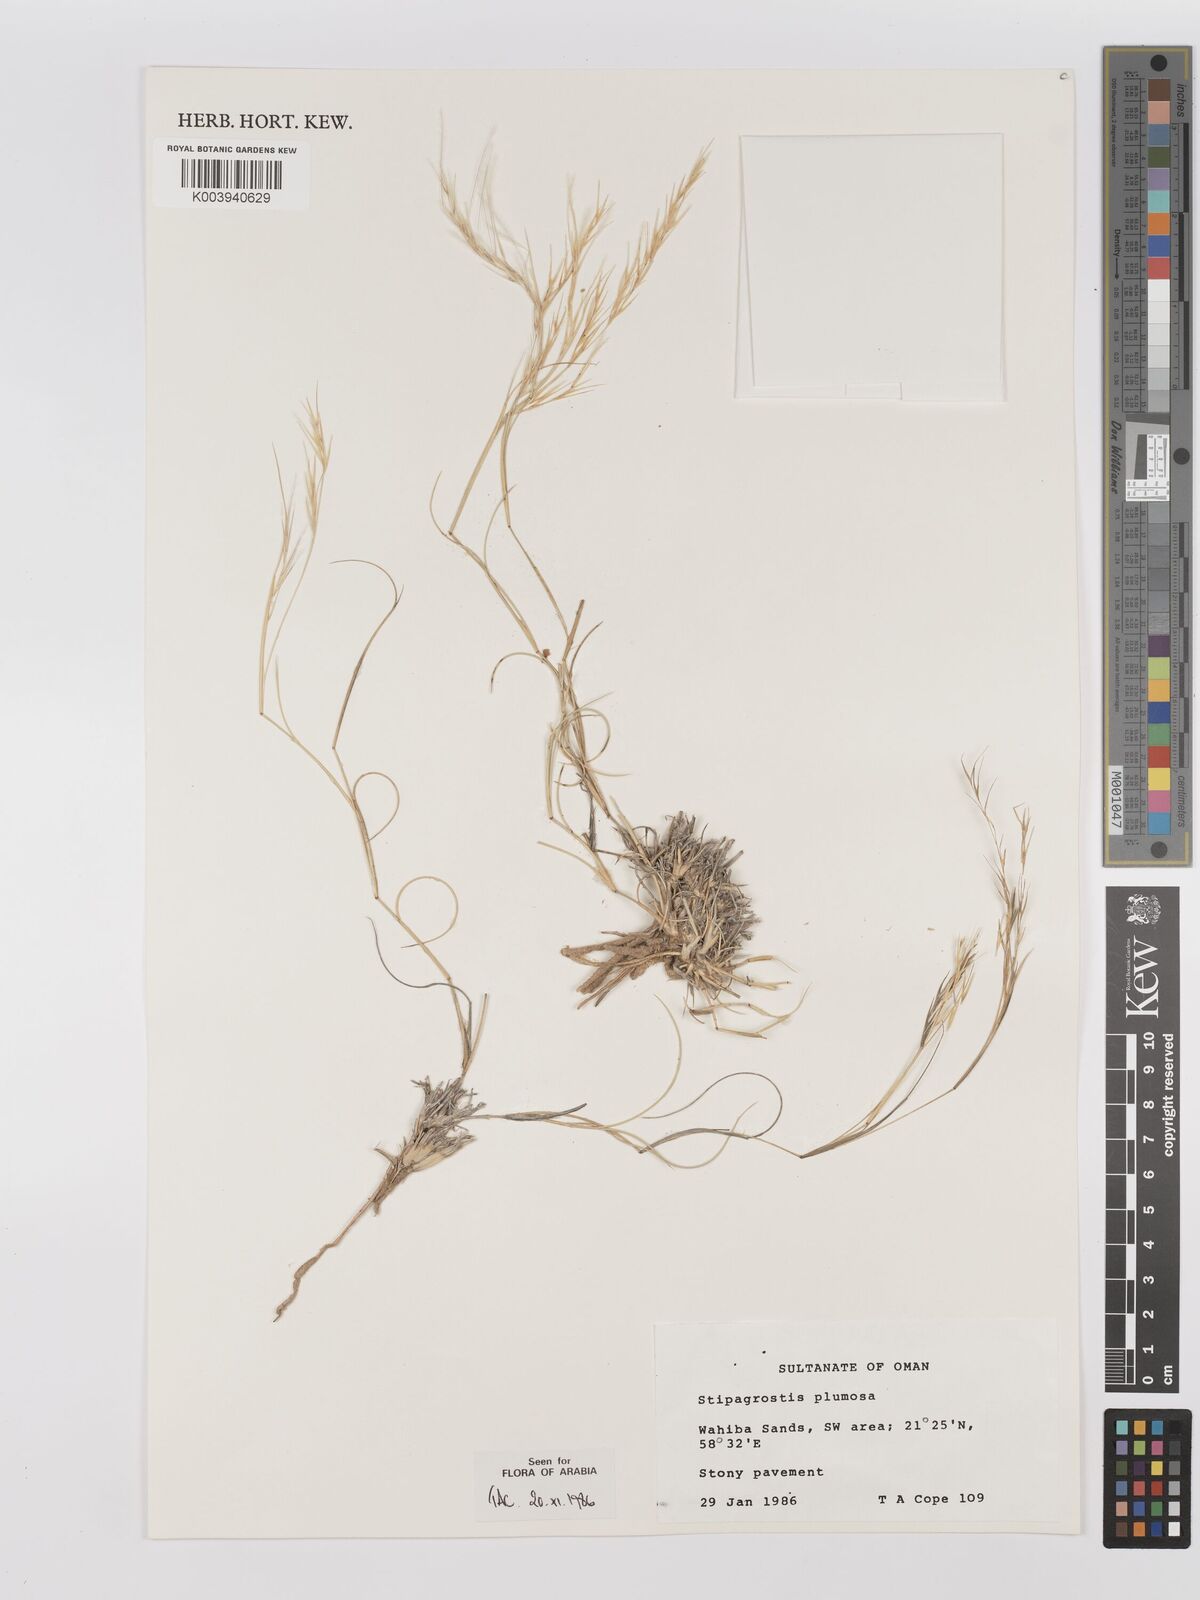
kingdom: Plantae
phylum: Tracheophyta
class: Liliopsida
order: Poales
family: Poaceae
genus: Stipagrostis
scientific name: Stipagrostis plumosa
